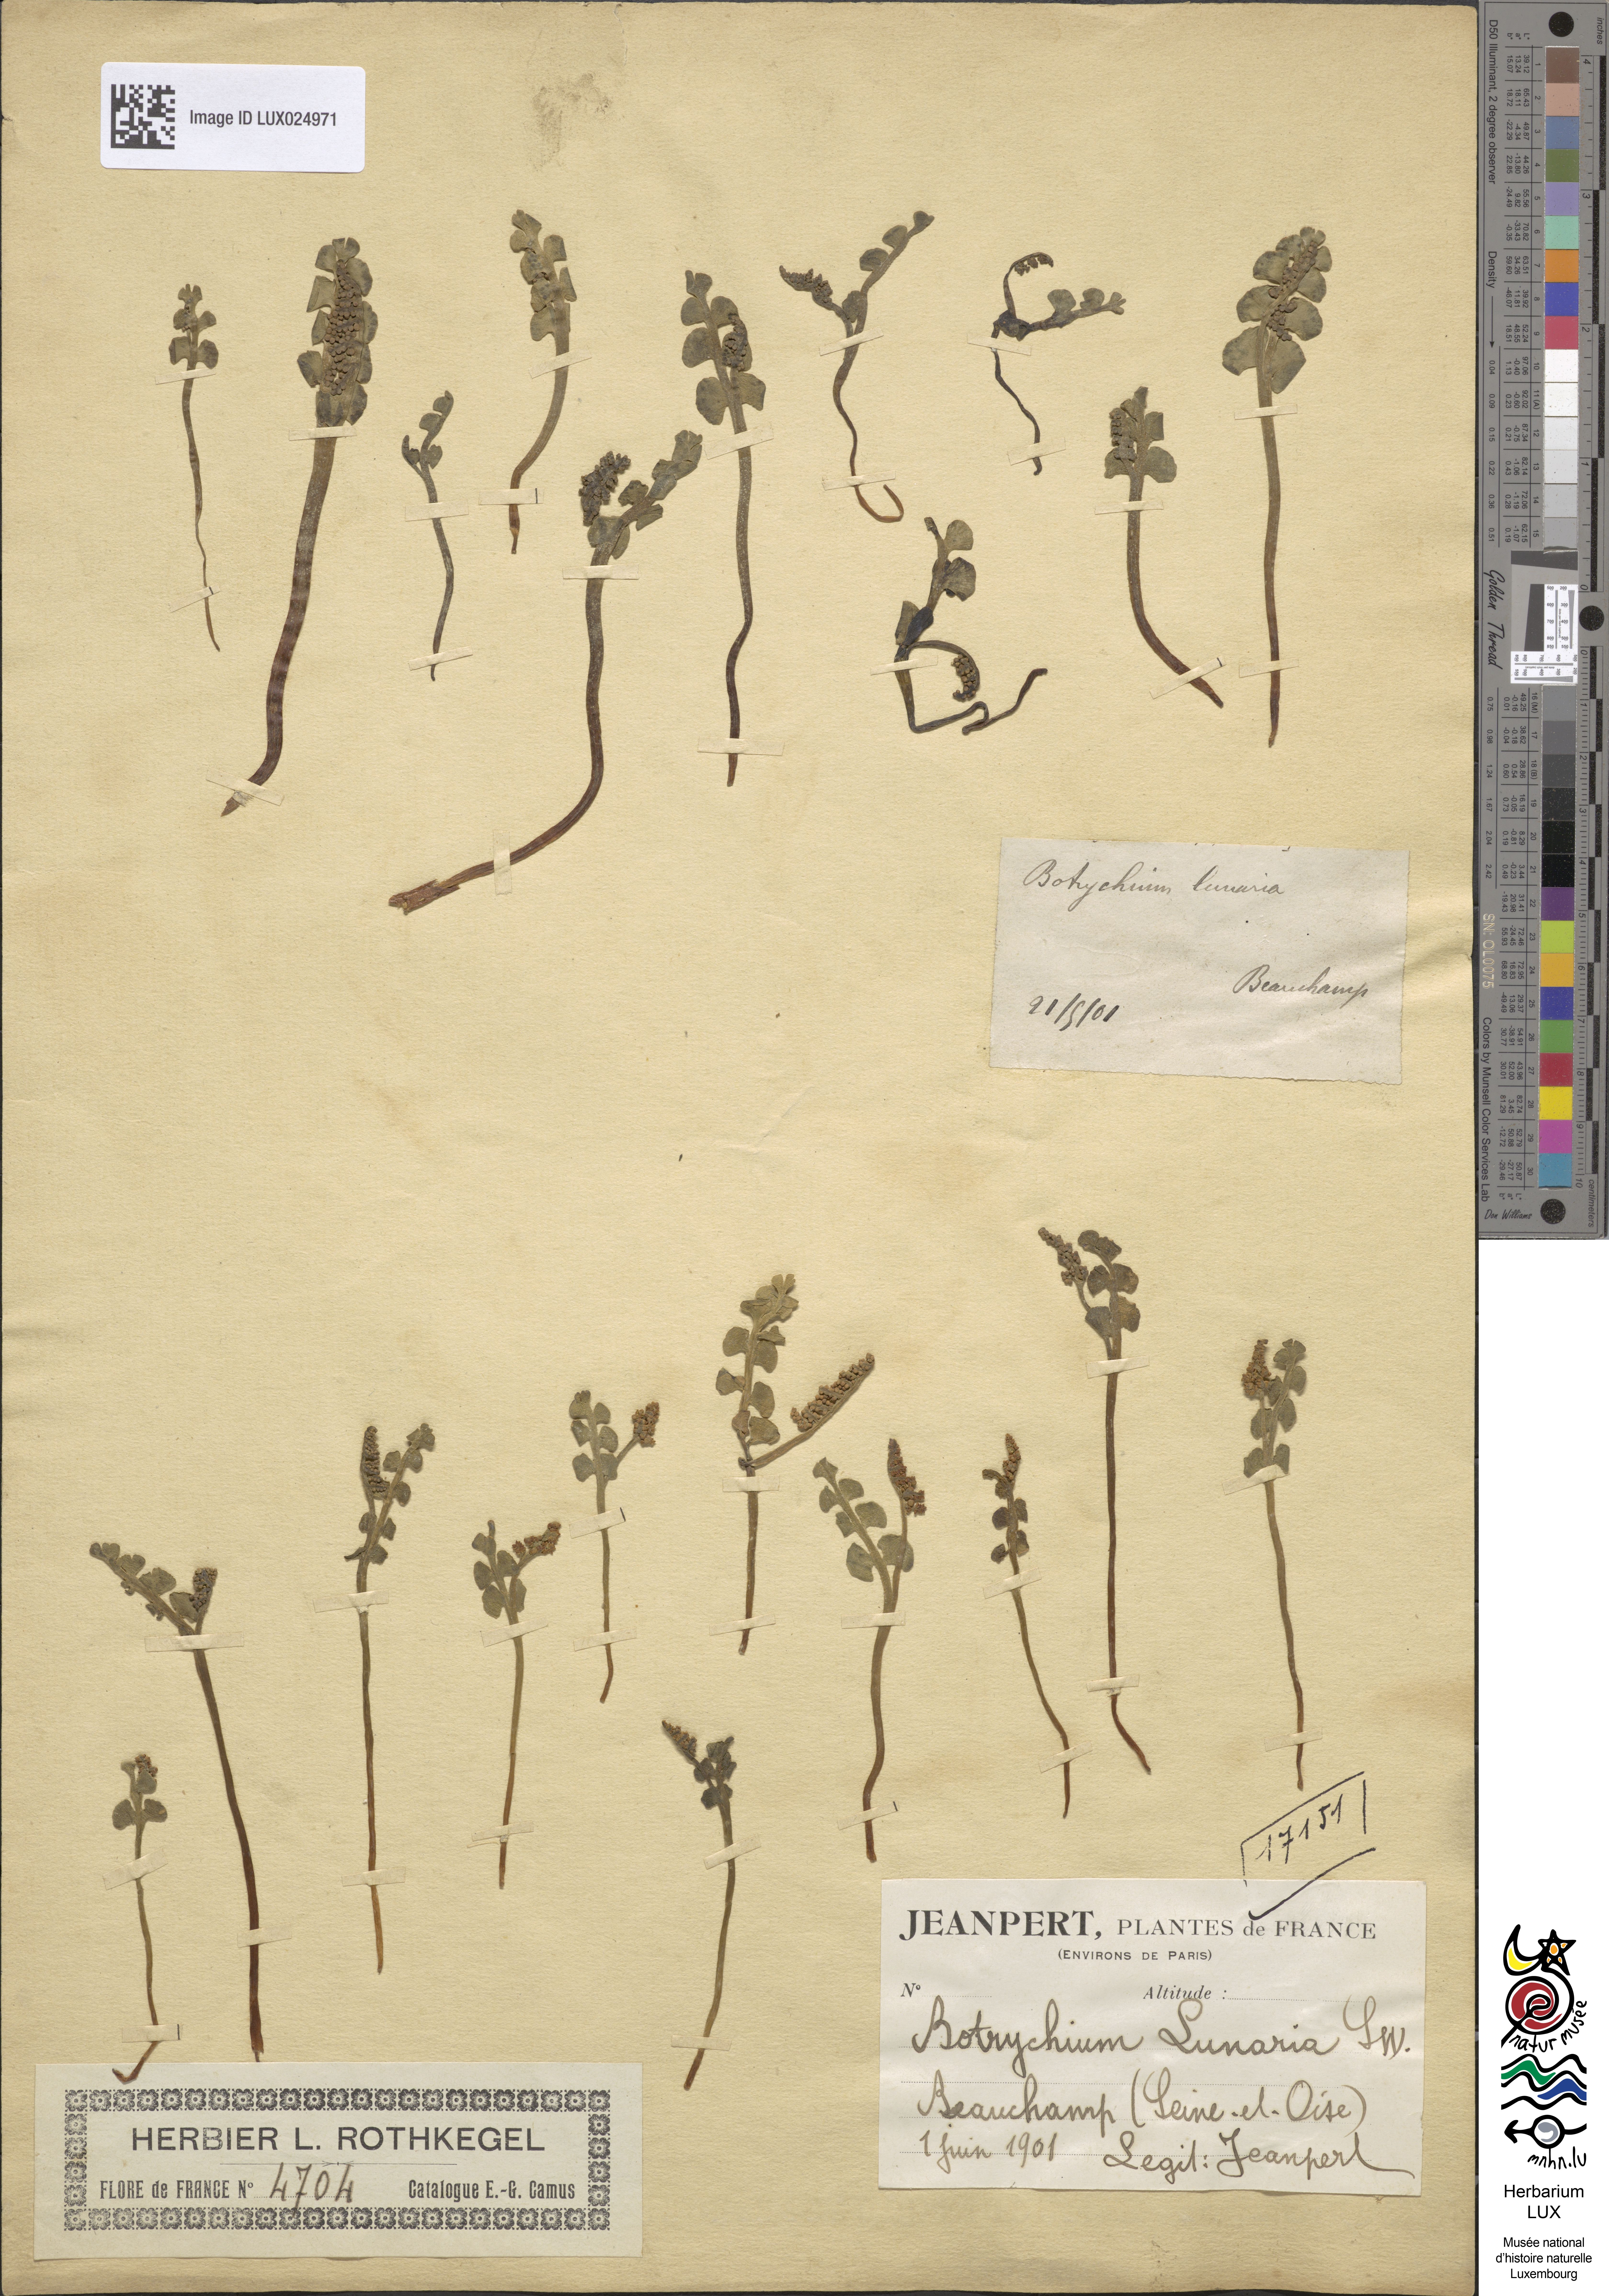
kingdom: Plantae
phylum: Tracheophyta
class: Polypodiopsida
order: Ophioglossales
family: Ophioglossaceae
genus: Botrychium
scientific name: Botrychium lunaria
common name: Moonwort
